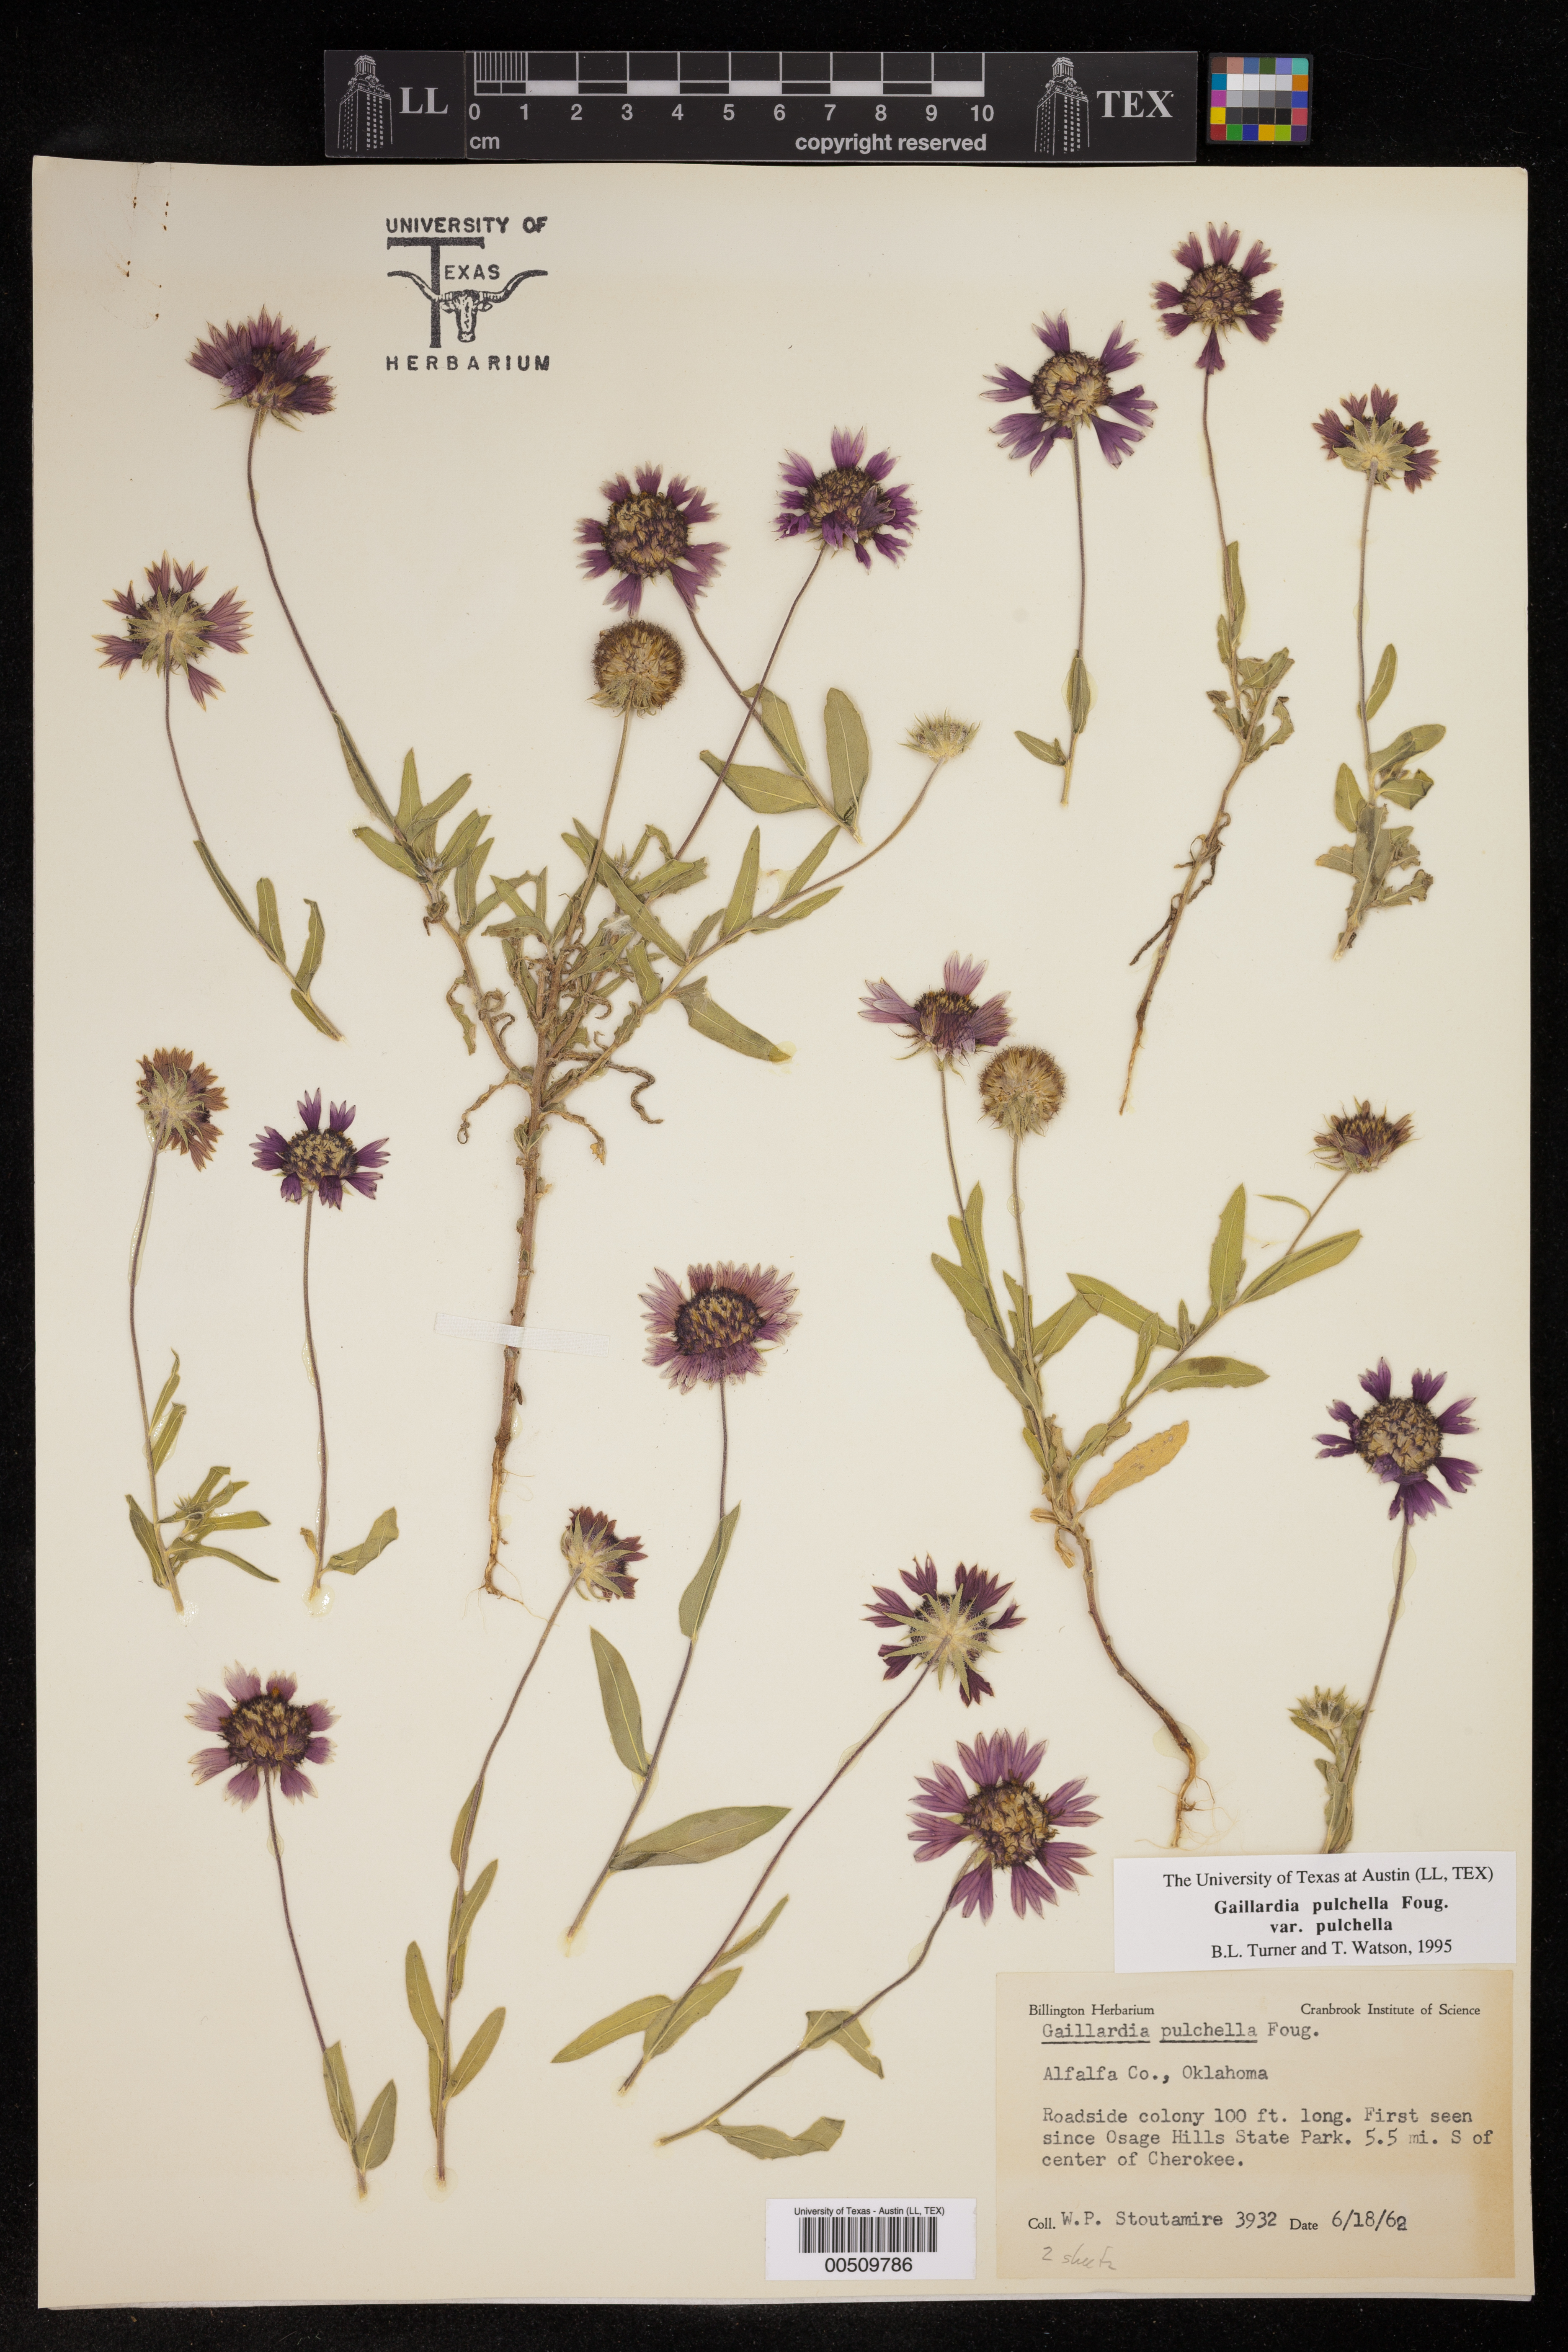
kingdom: Plantae
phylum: Tracheophyta
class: Magnoliopsida
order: Asterales
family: Asteraceae
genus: Gaillardia
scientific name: Gaillardia pulchella
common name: Firewheel
